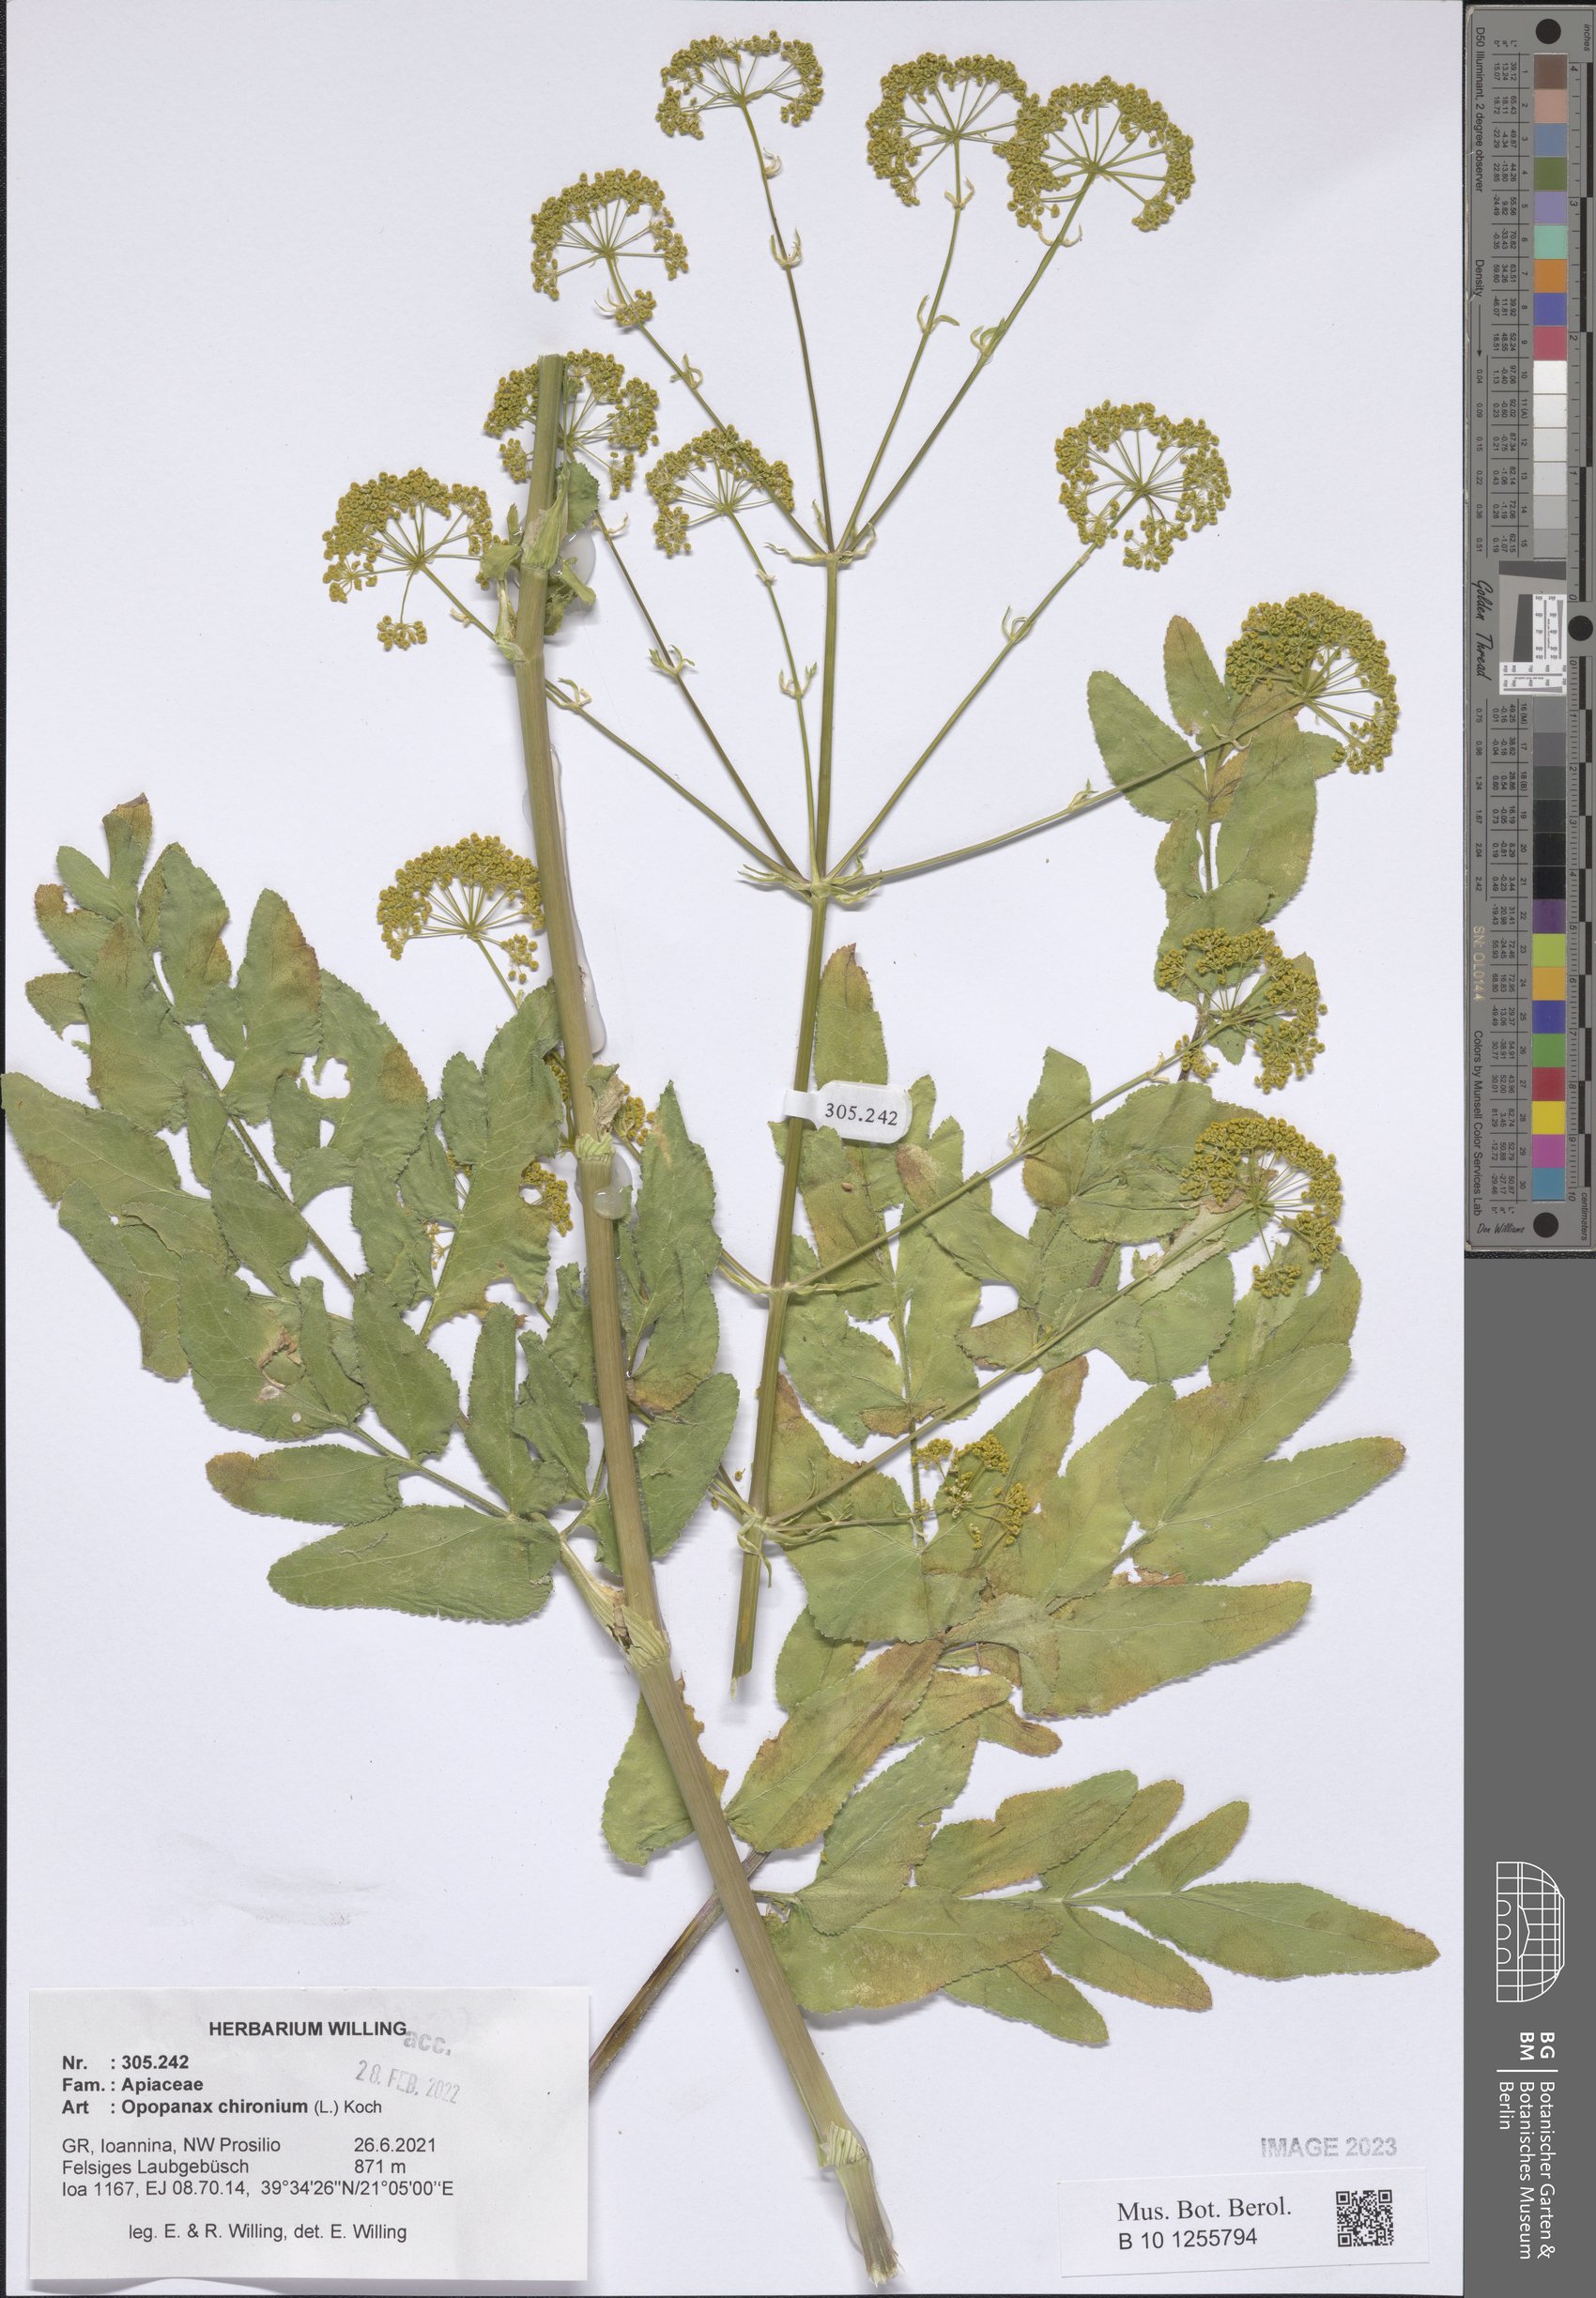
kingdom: Plantae
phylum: Tracheophyta
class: Magnoliopsida
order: Apiales
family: Apiaceae
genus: Opopanax
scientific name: Opopanax chironium
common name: Hercules-all-heal
